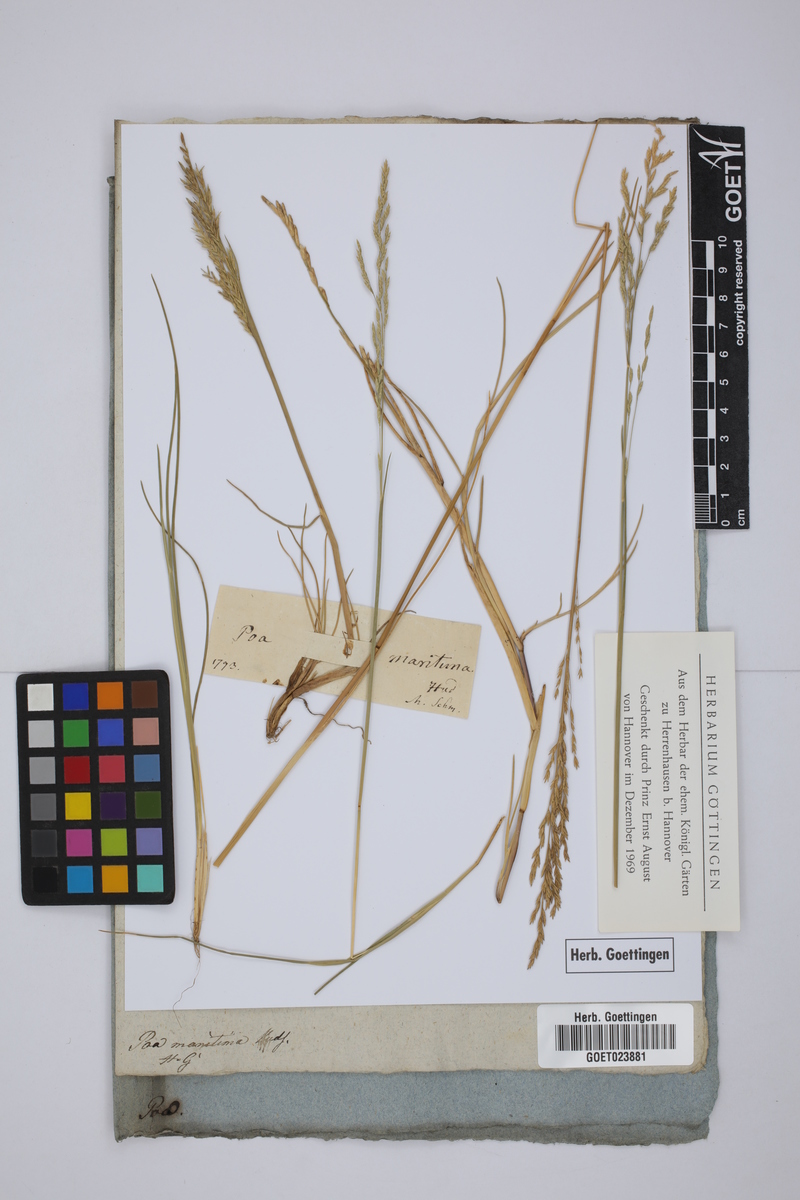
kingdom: Plantae
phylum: Tracheophyta
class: Liliopsida
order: Poales
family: Poaceae
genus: Puccinellia
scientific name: Puccinellia maritima
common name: Common saltmarsh grass
